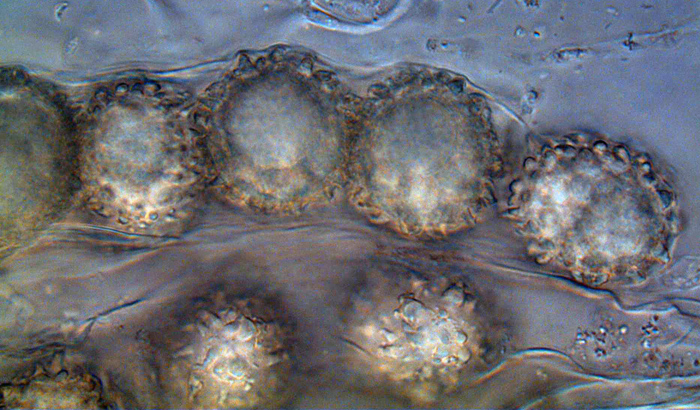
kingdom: Fungi
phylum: Ascomycota
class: Pezizomycetes
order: Pezizales
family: Pyronemataceae
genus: Genea
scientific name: Genea verrucosa
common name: vortet halvtrøffel
